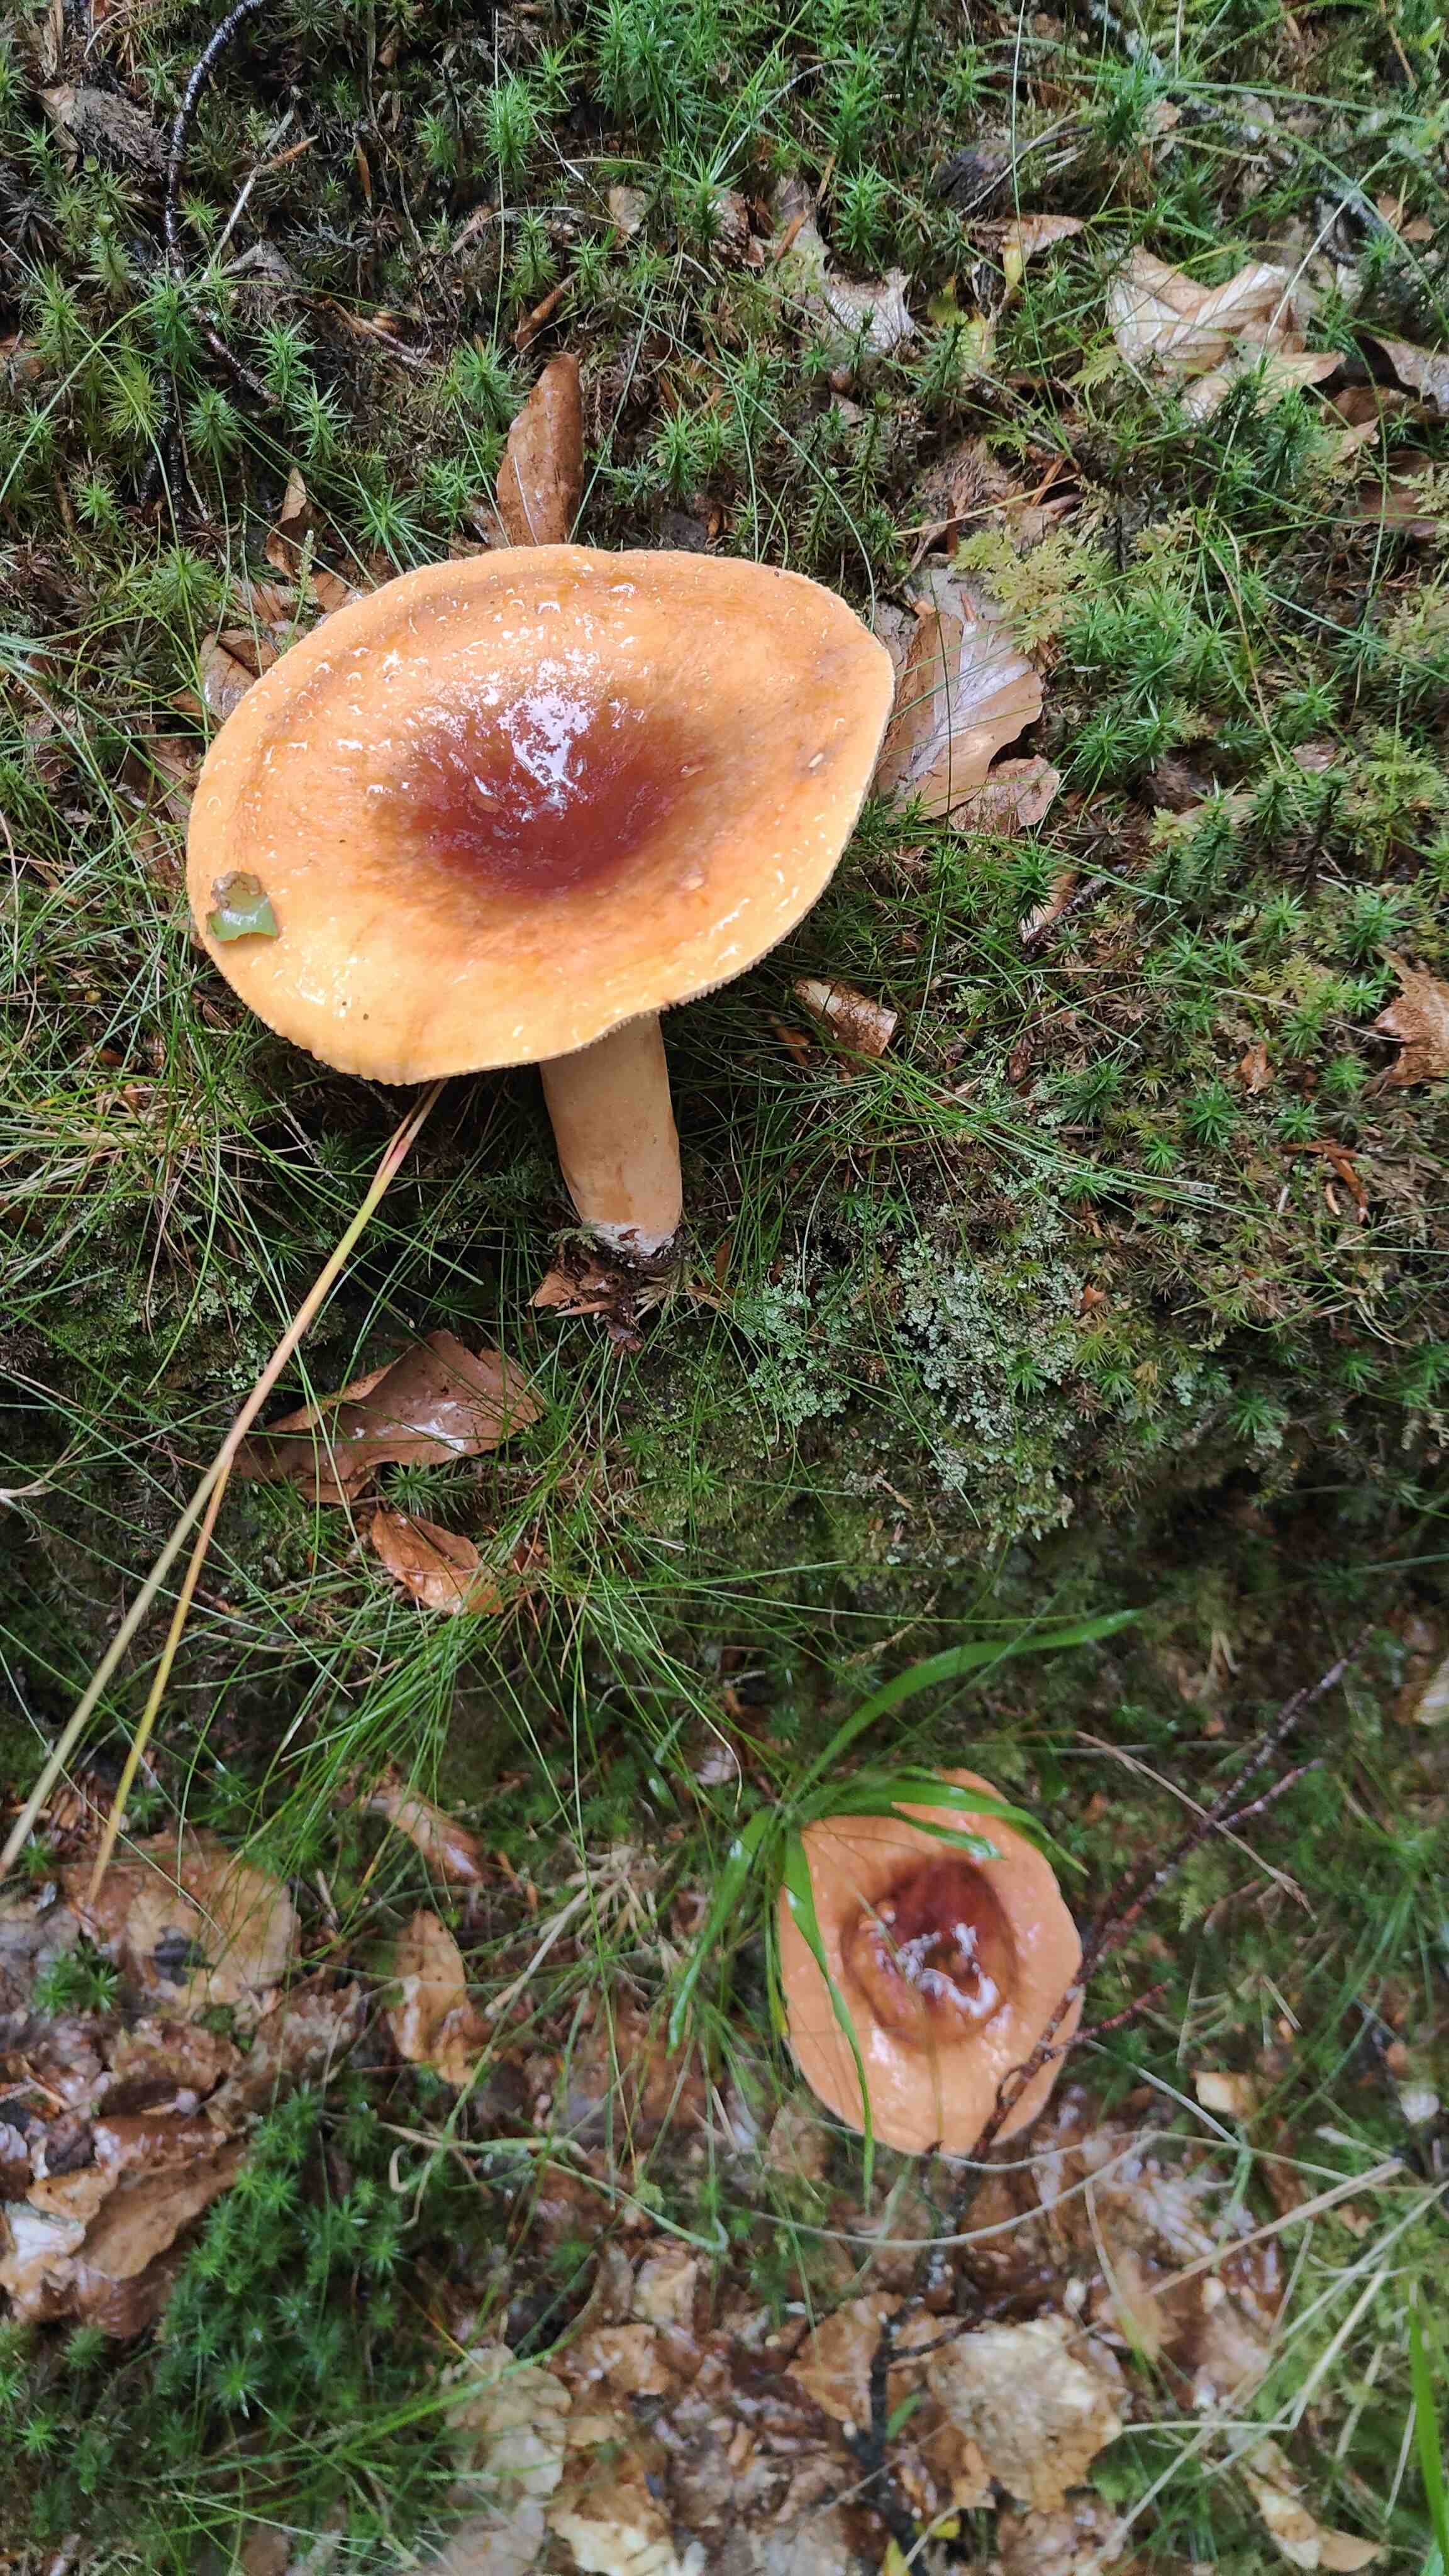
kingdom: Fungi
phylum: Basidiomycota
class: Agaricomycetes
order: Russulales
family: Russulaceae
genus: Lactifluus
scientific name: Lactifluus
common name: mælkehat
